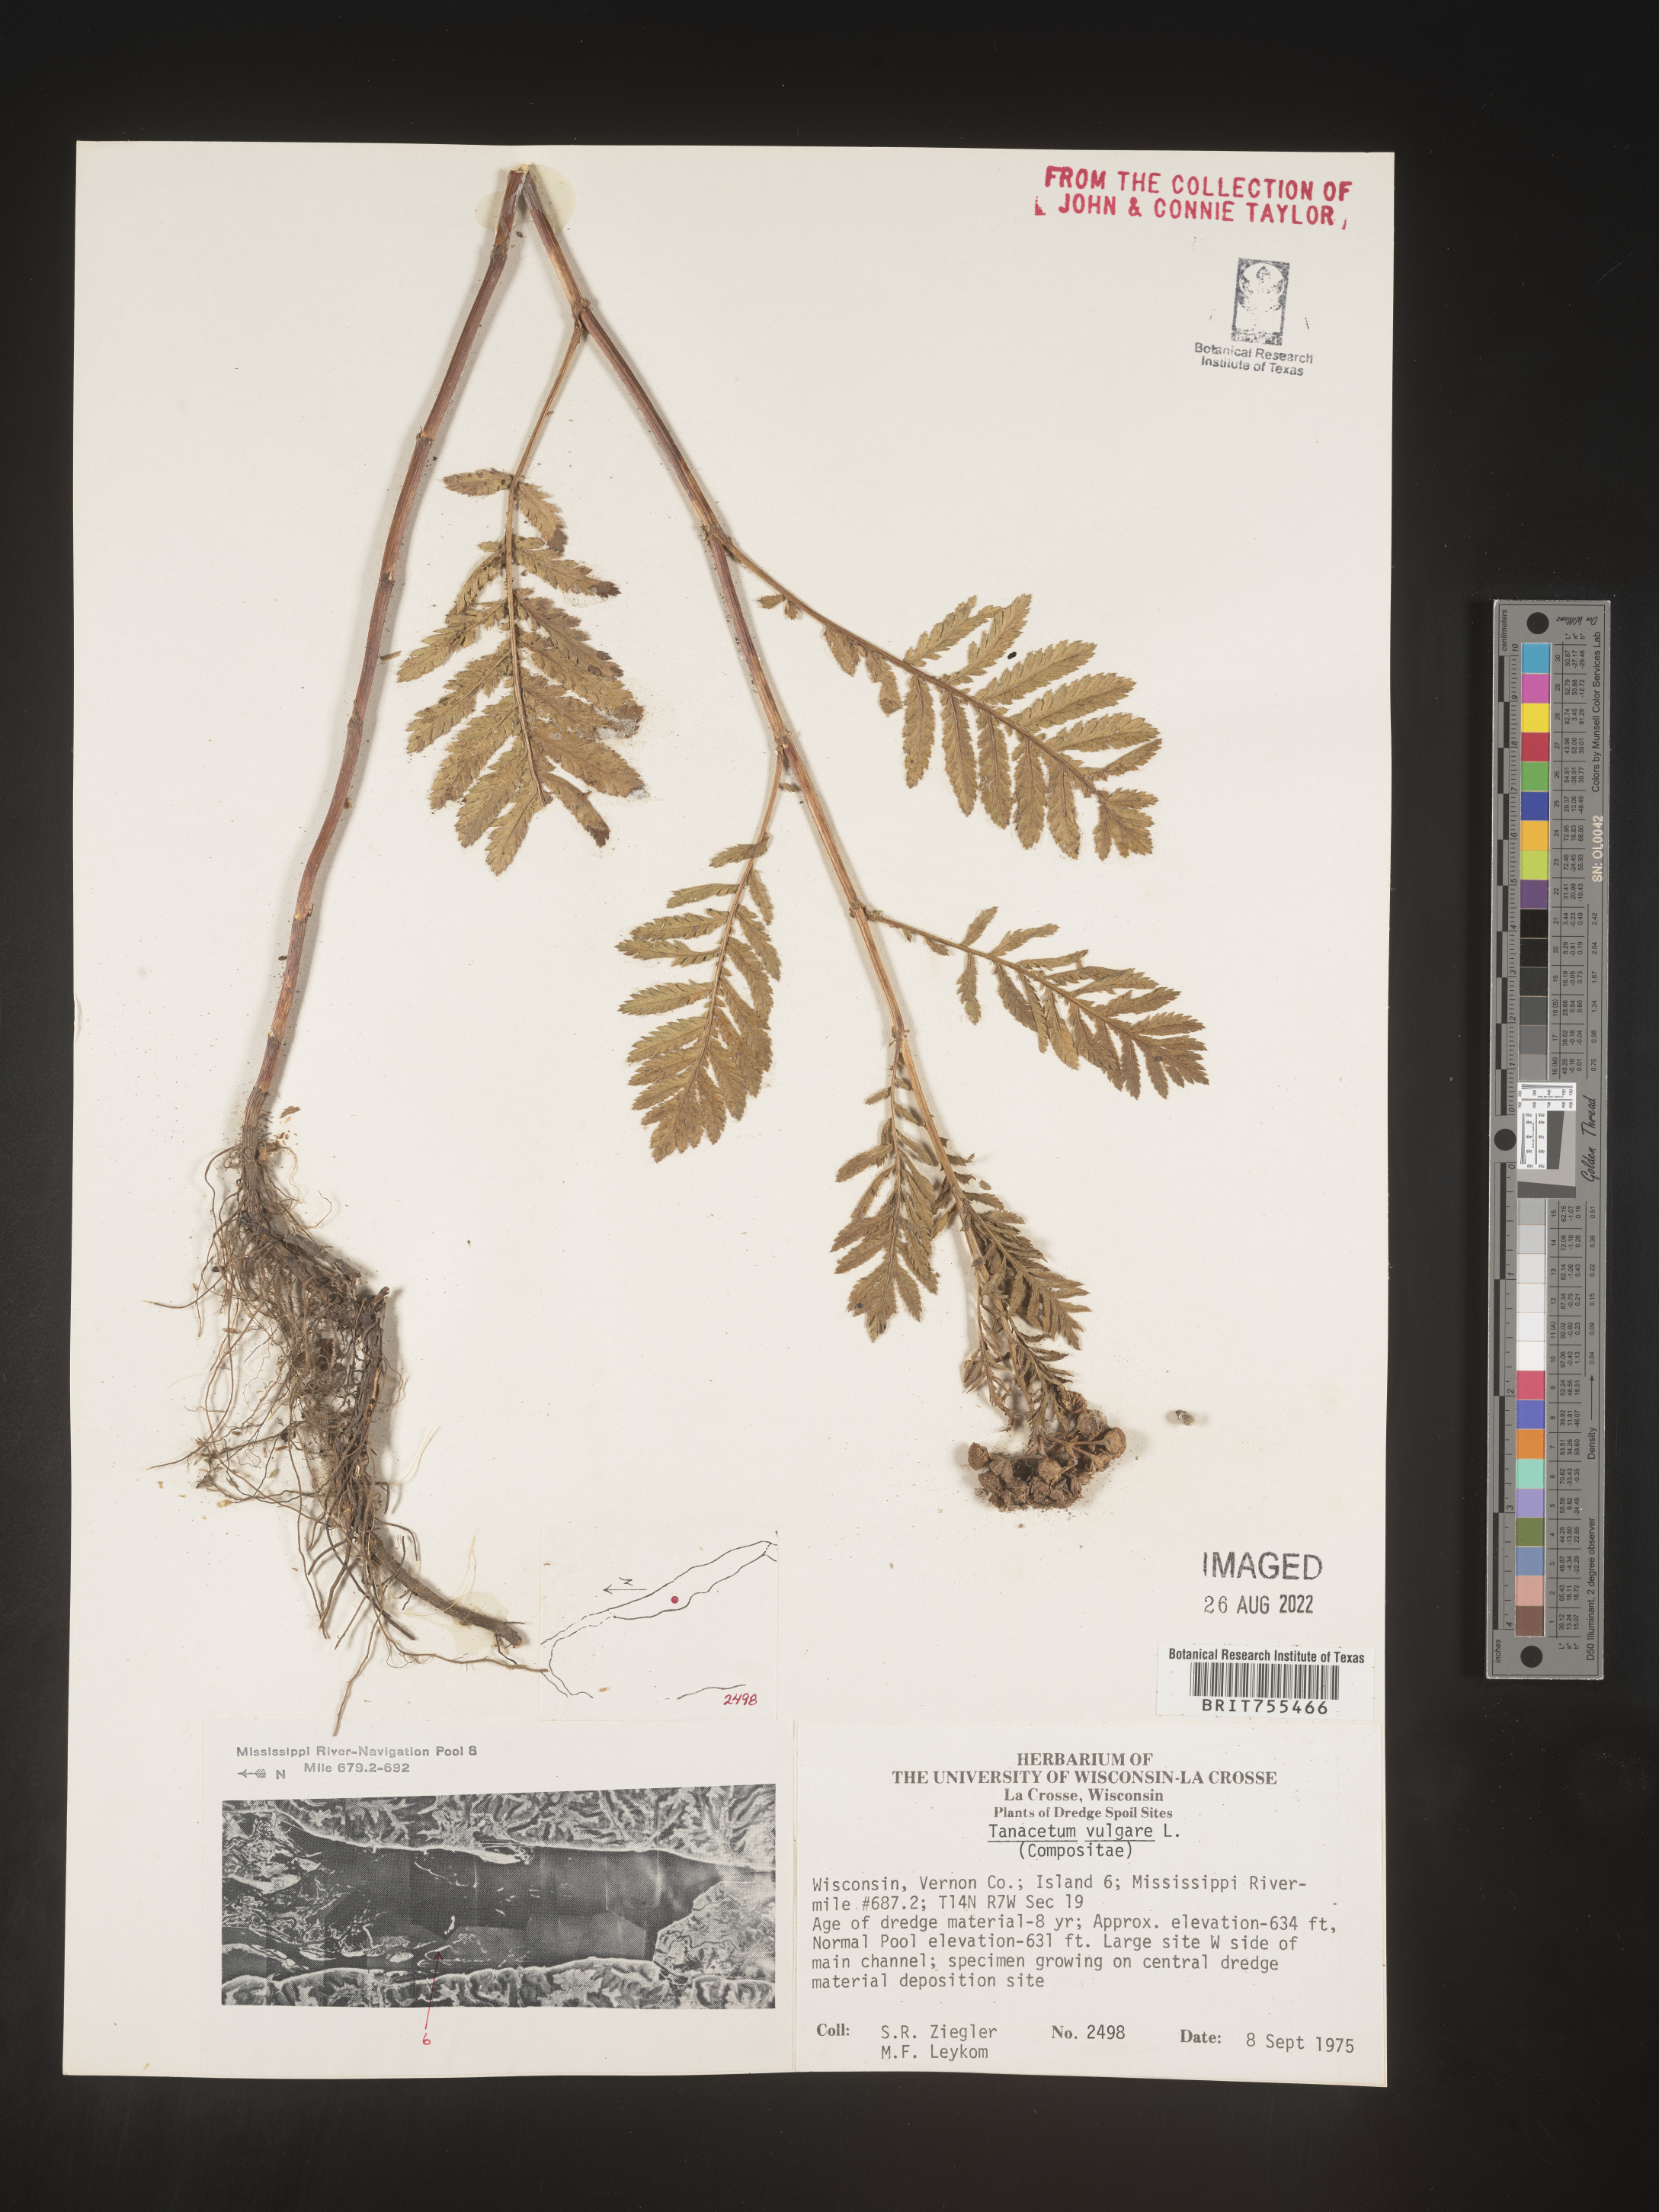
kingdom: Plantae
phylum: Tracheophyta
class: Magnoliopsida
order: Asterales
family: Asteraceae
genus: Tanacetum
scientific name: Tanacetum vulgare
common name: Common tansy
